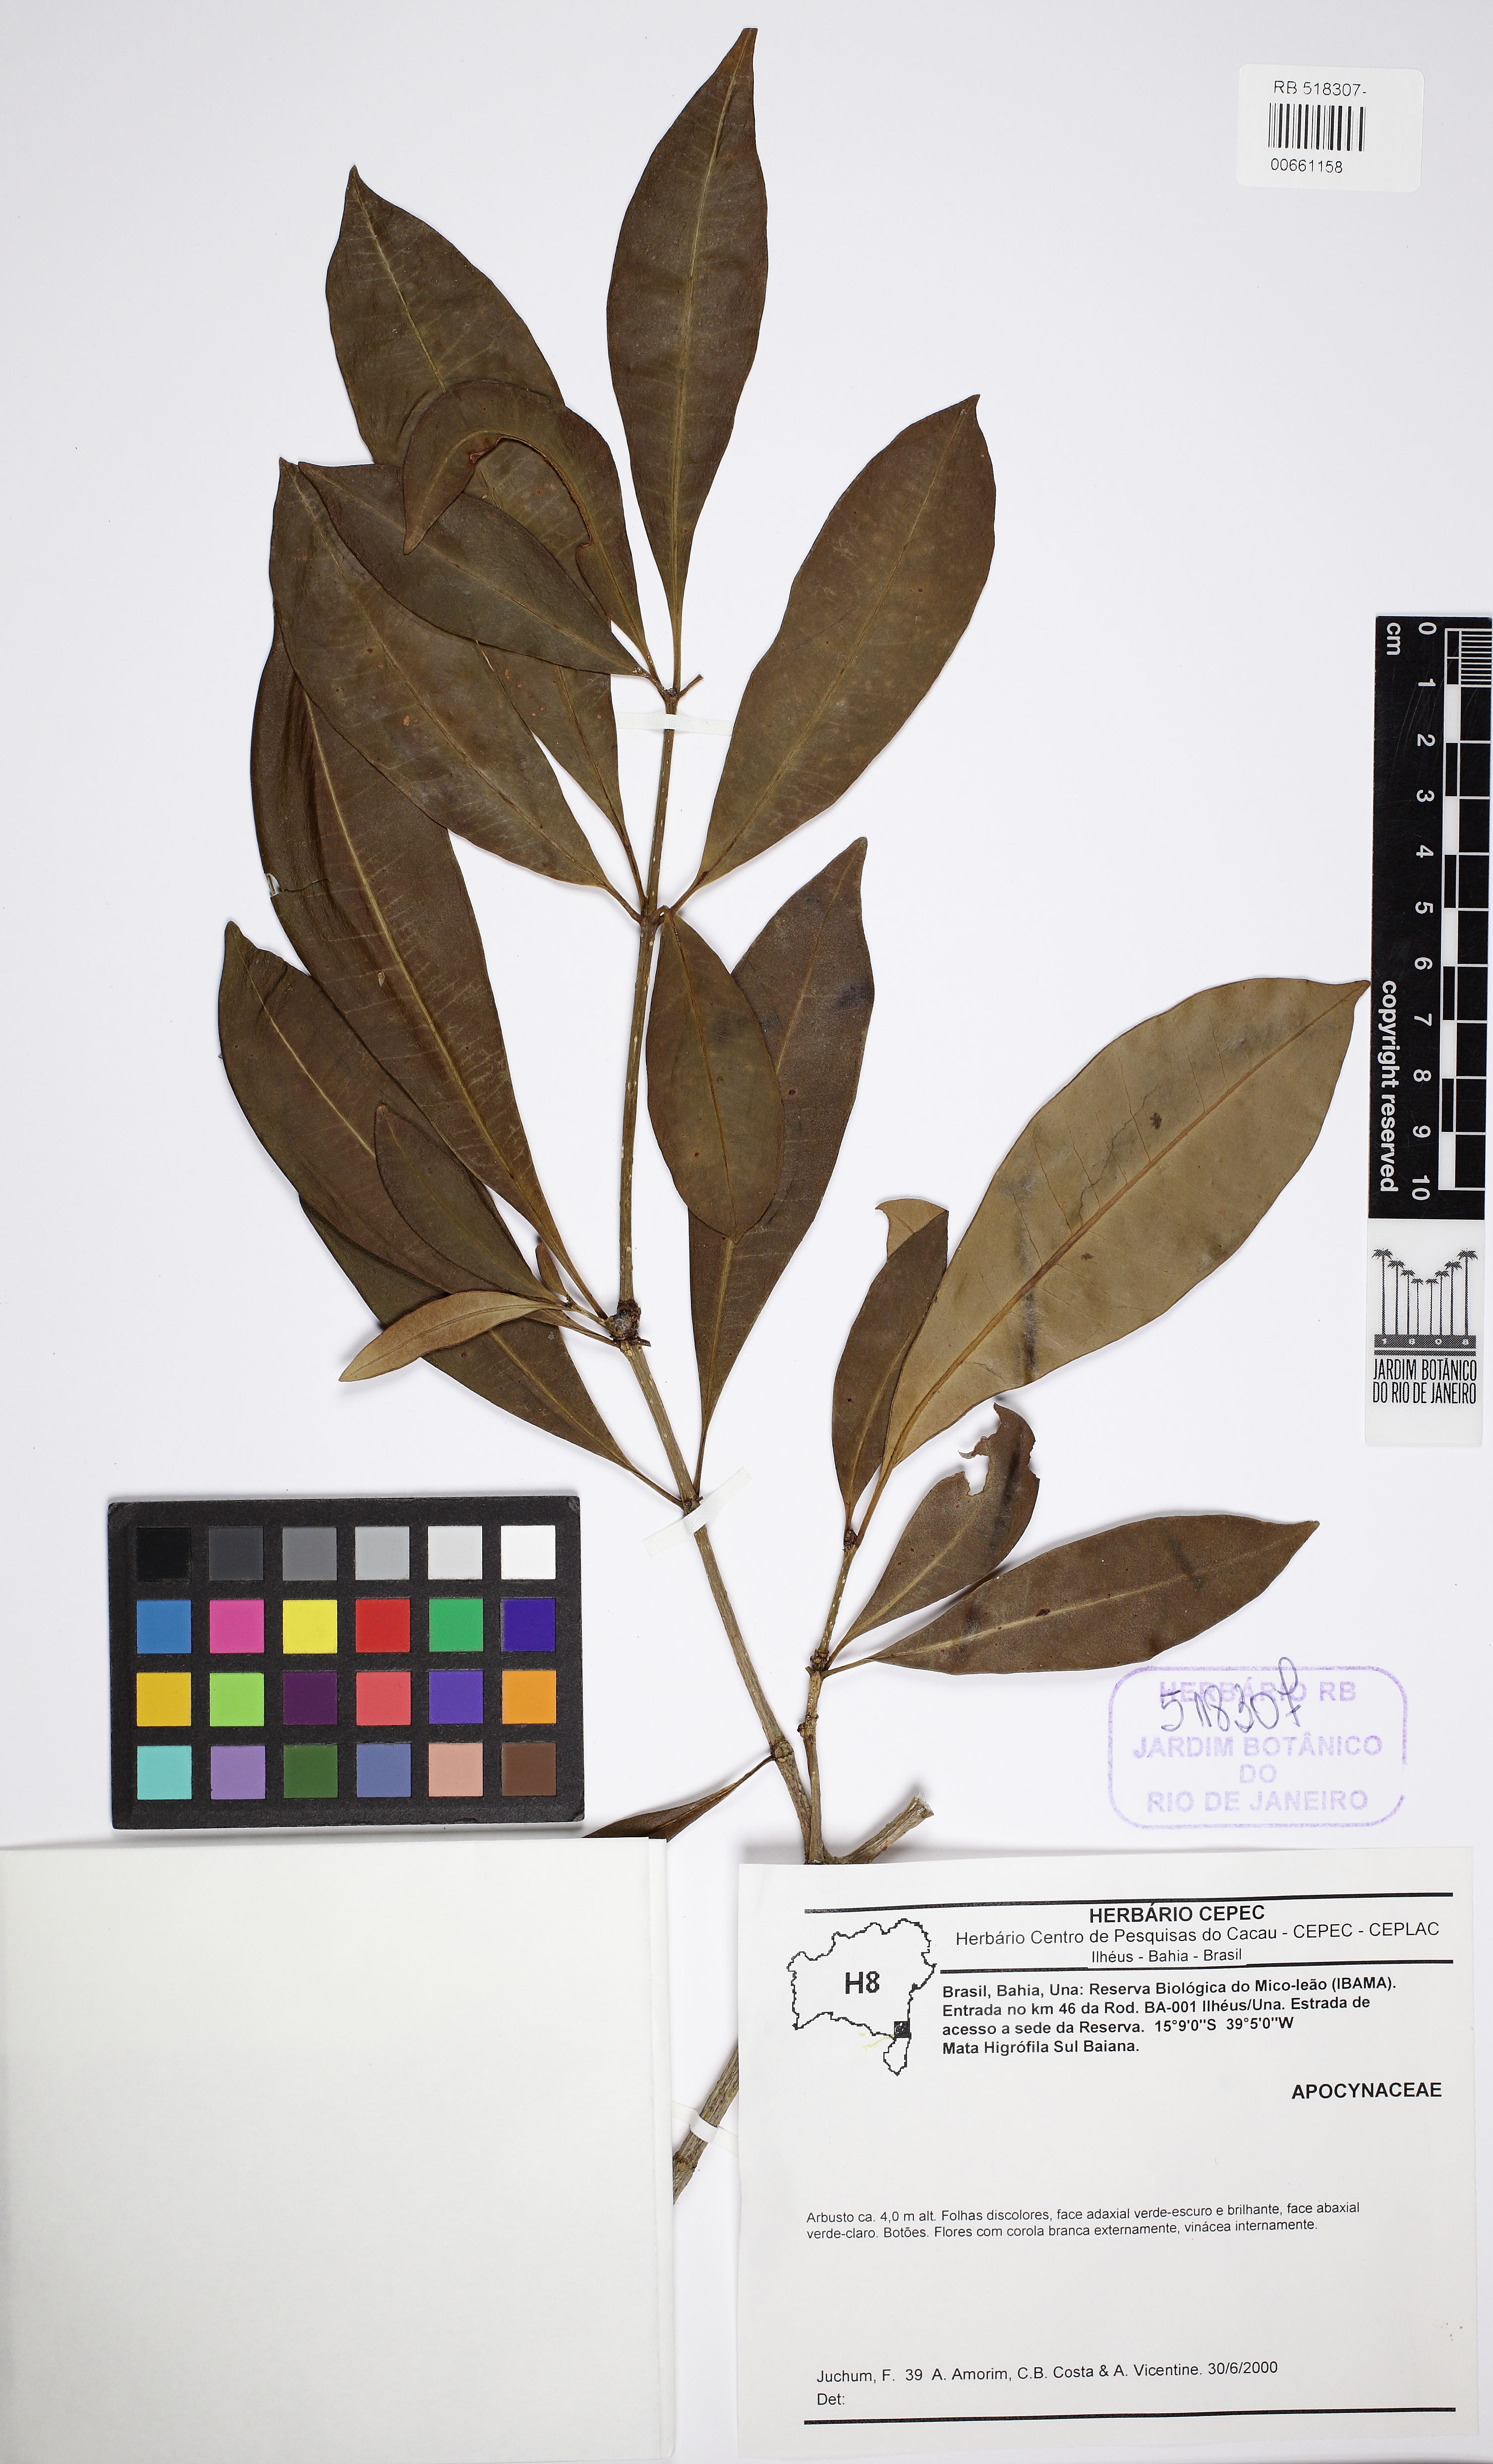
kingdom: Plantae
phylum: Tracheophyta
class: Magnoliopsida
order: Gentianales
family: Apocynaceae
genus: Rauvolfia
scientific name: Rauvolfia
